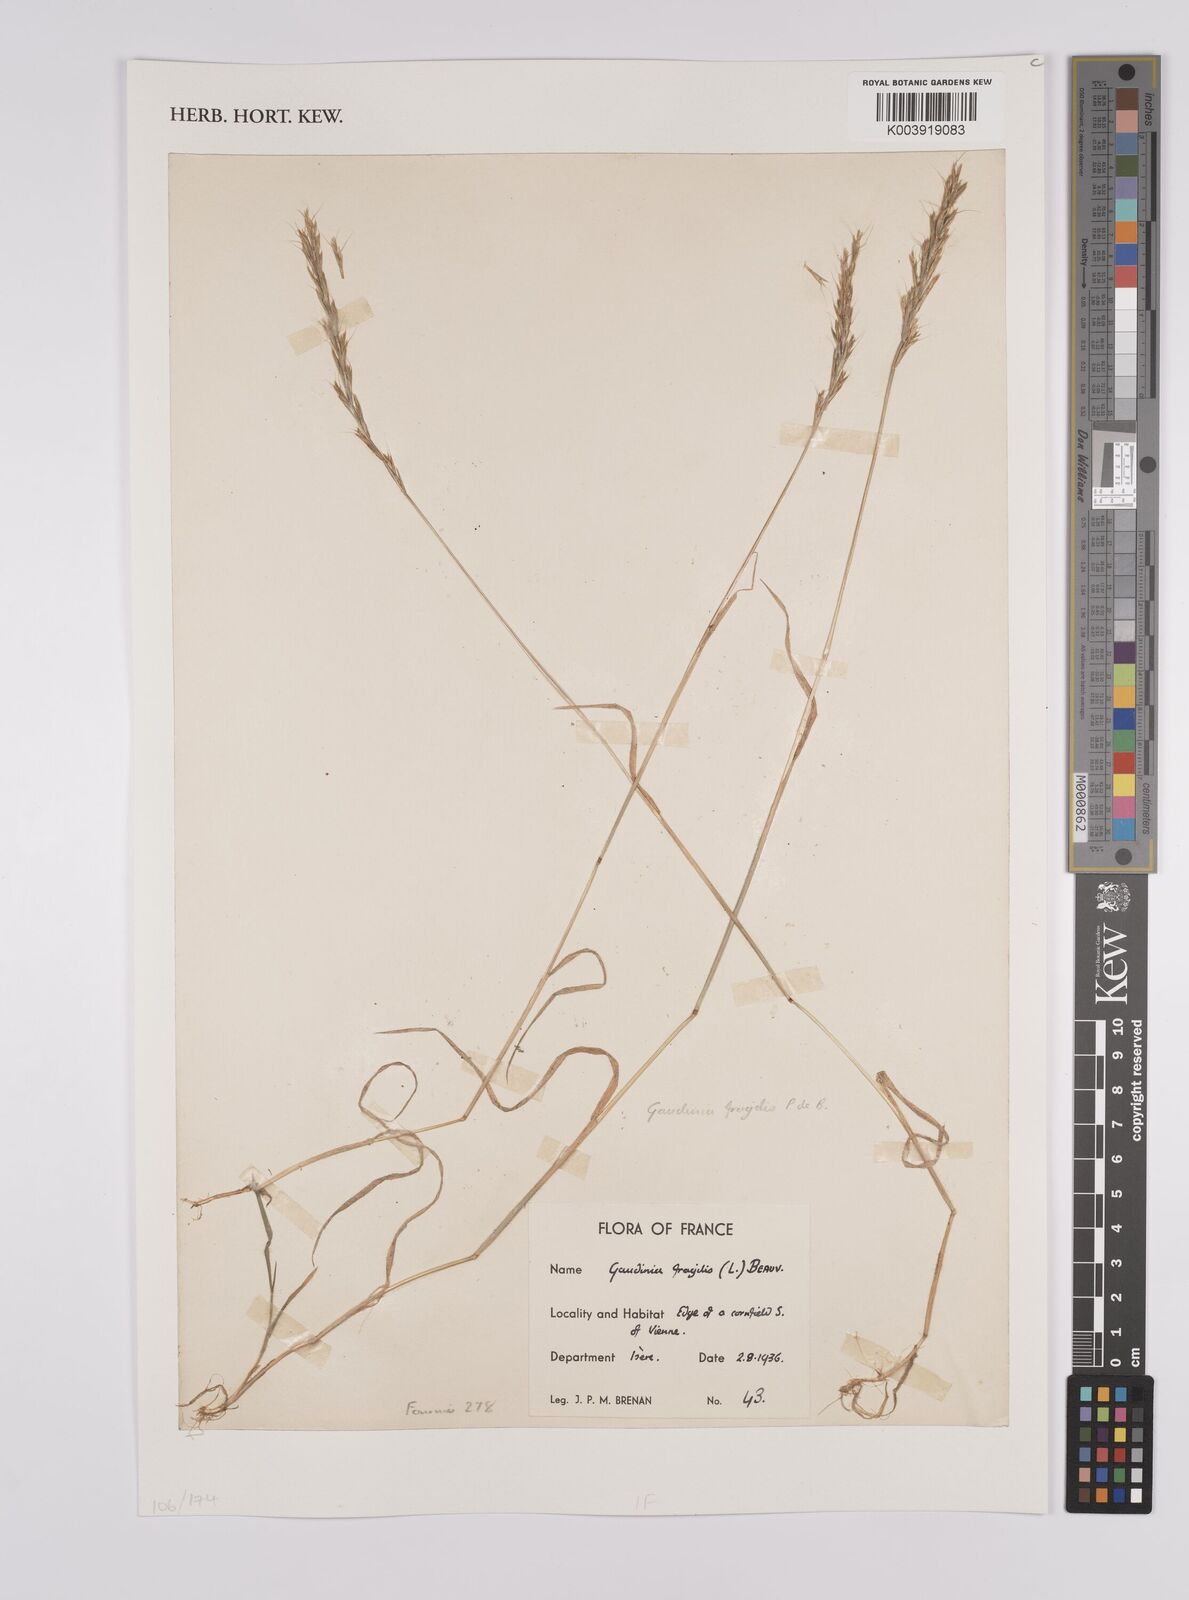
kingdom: Plantae
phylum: Tracheophyta
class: Liliopsida
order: Poales
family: Poaceae
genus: Gaudinia
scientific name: Gaudinia fragilis
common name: French oat-grass
